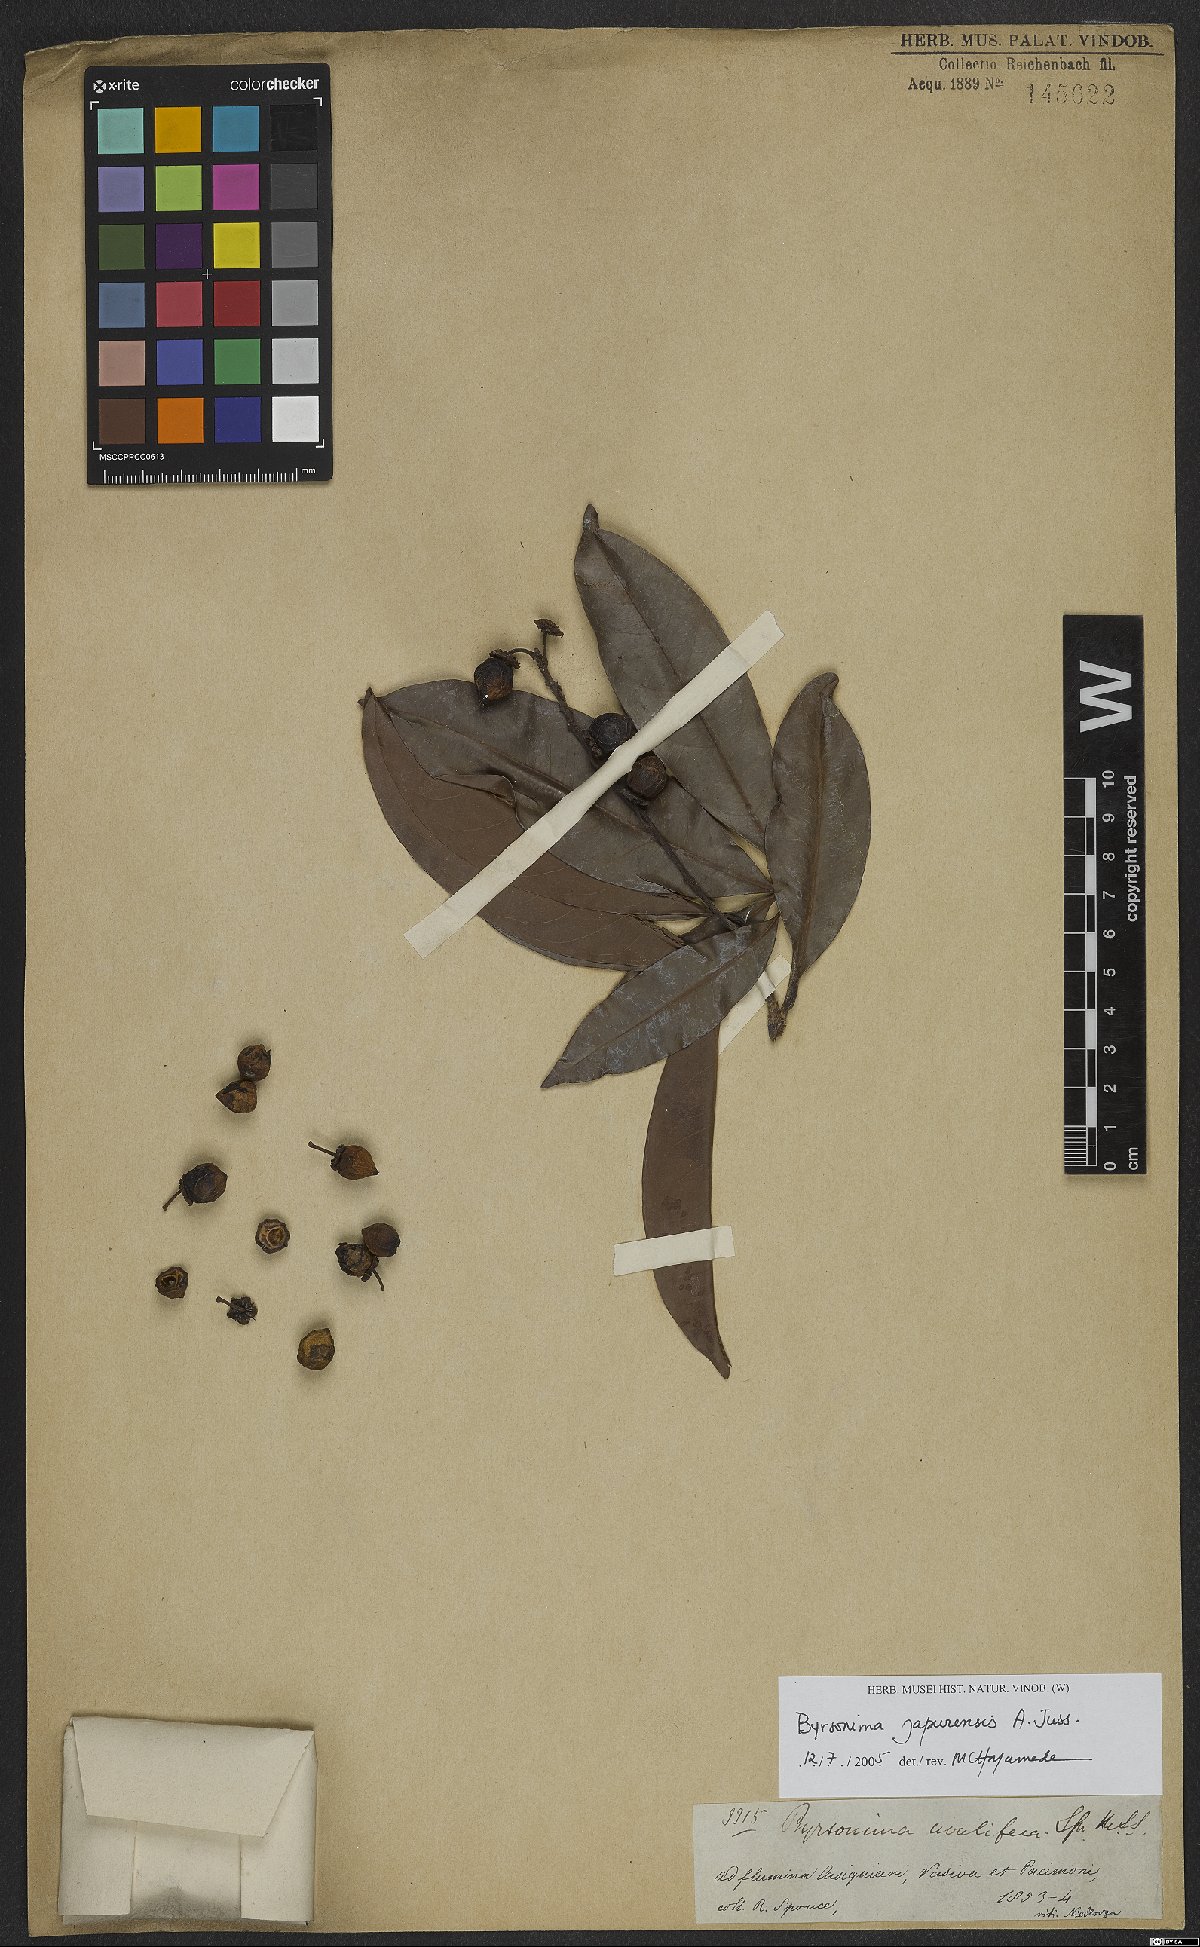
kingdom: Plantae
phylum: Tracheophyta
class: Magnoliopsida
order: Malpighiales
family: Malpighiaceae
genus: Byrsonima
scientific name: Byrsonima japurensis
